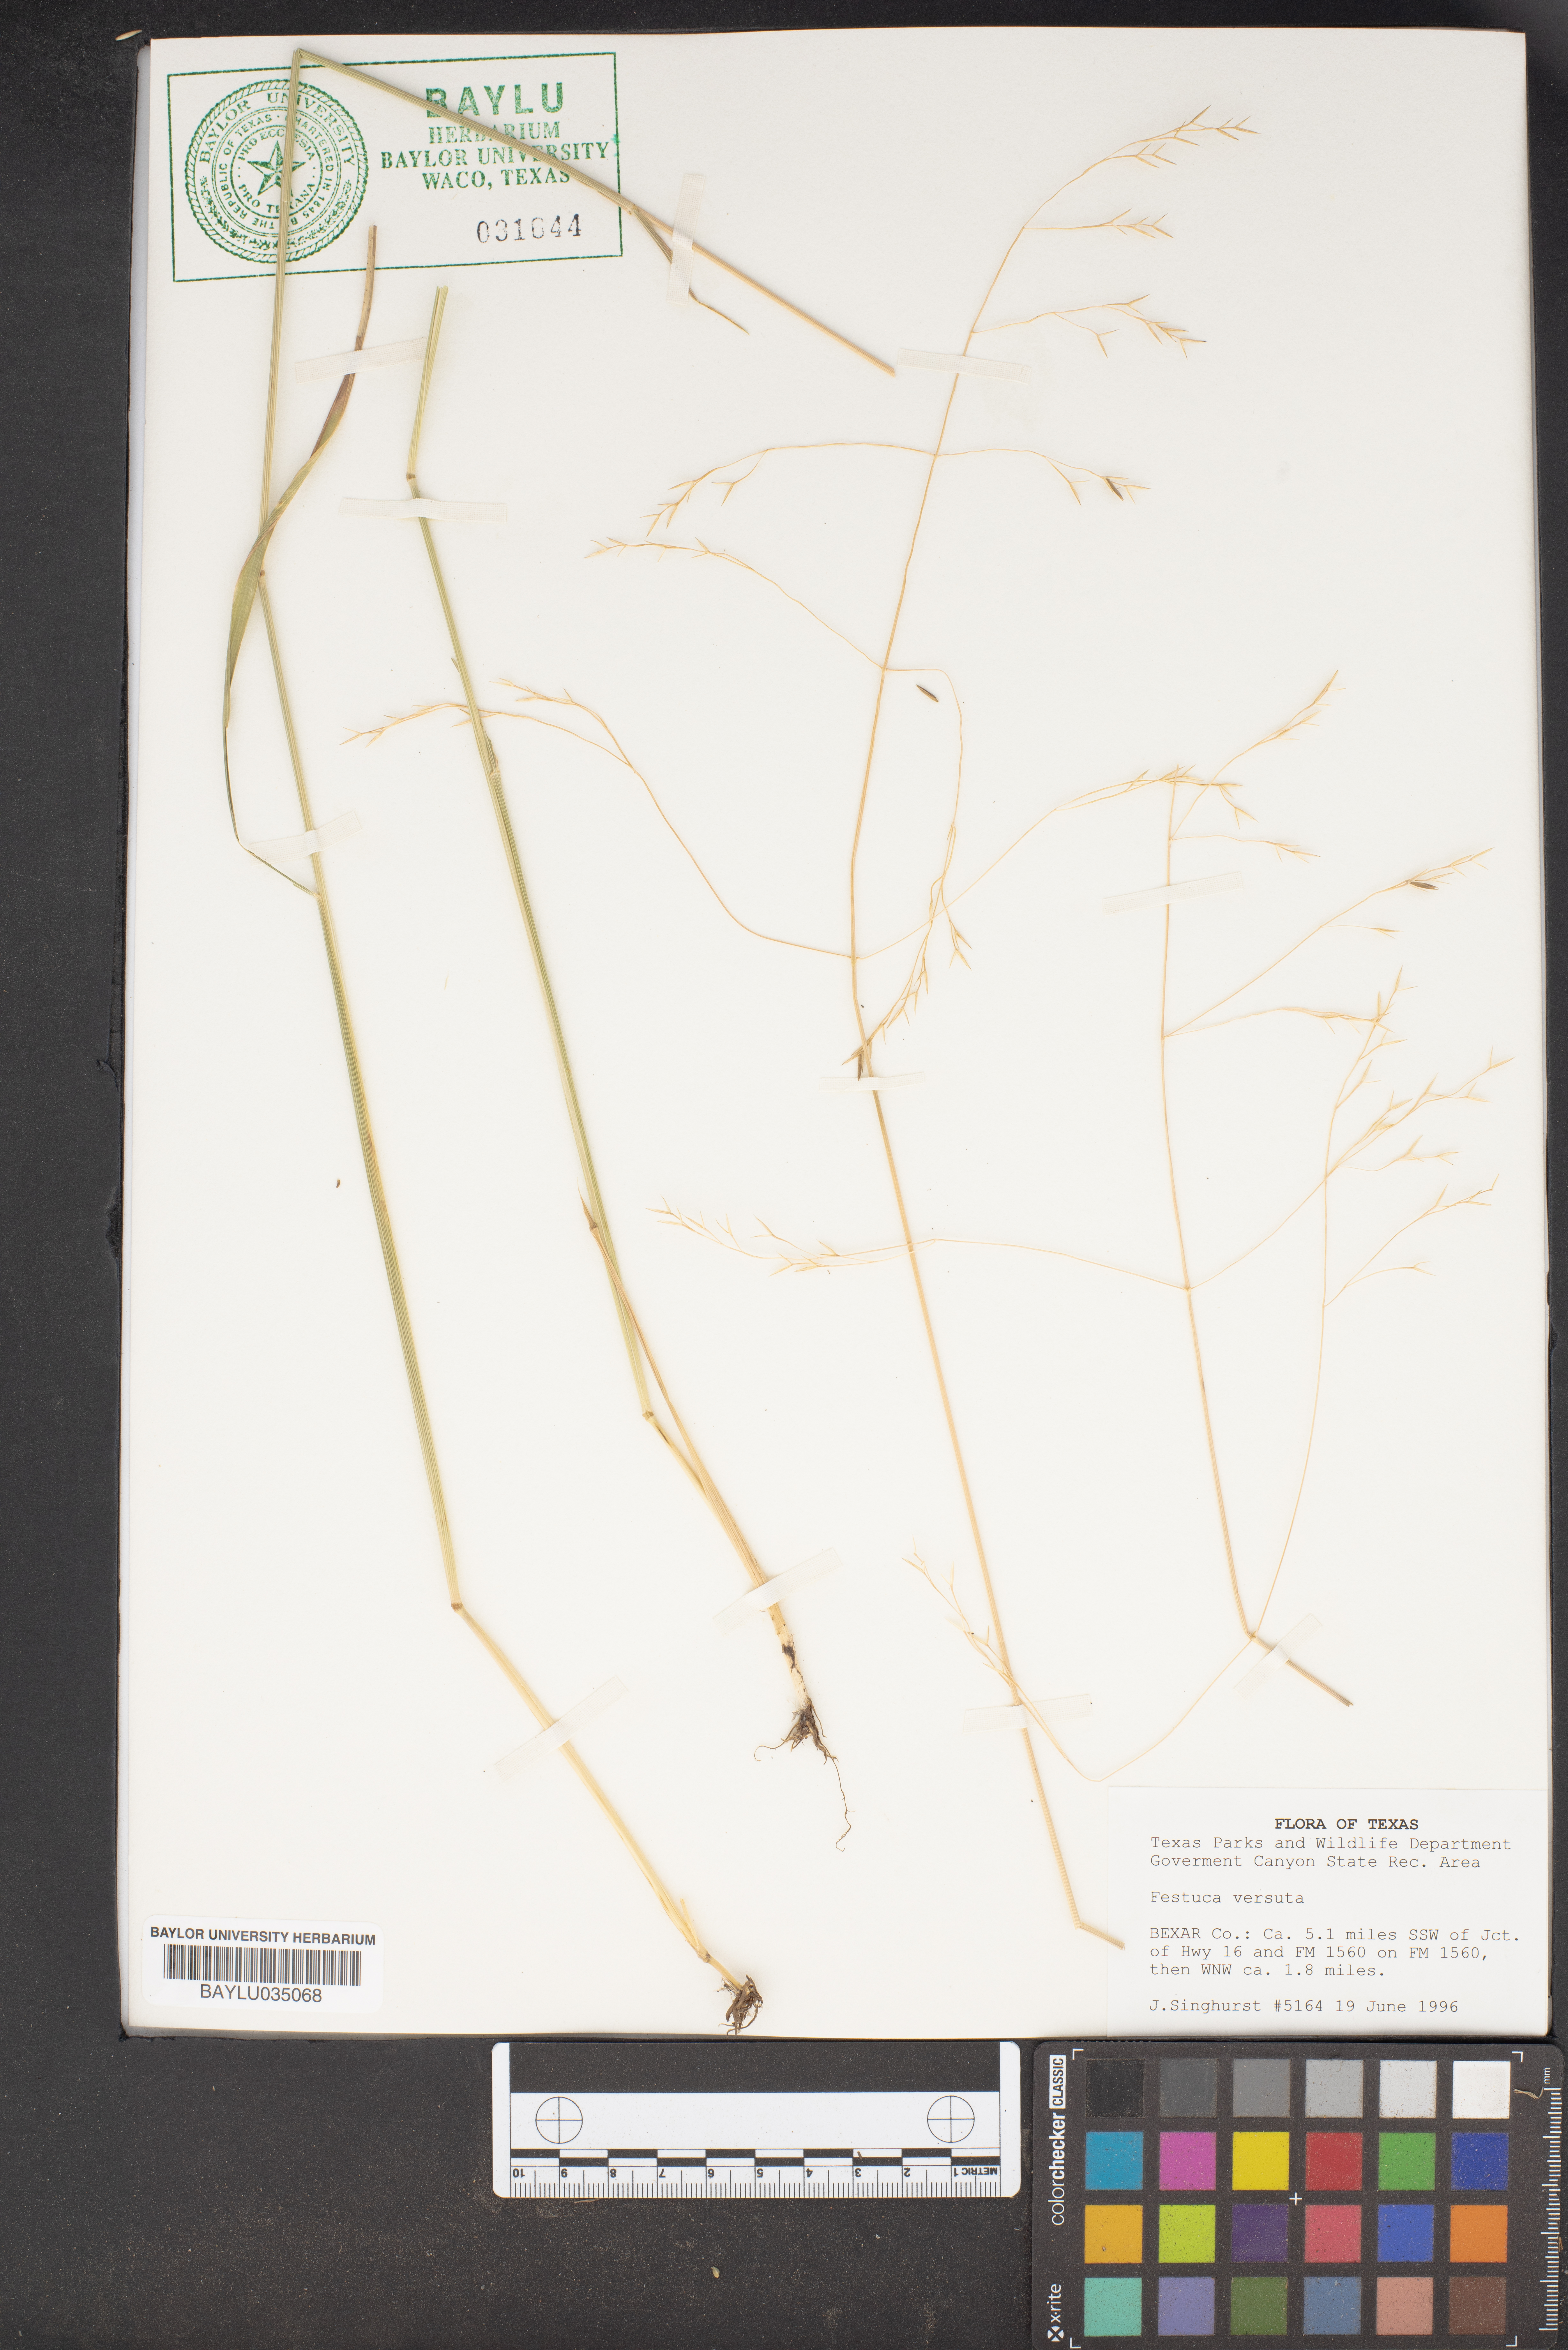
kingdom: Plantae
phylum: Tracheophyta
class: Liliopsida
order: Poales
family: Poaceae
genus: Festuca
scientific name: Festuca versuta
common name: Texas fescue
